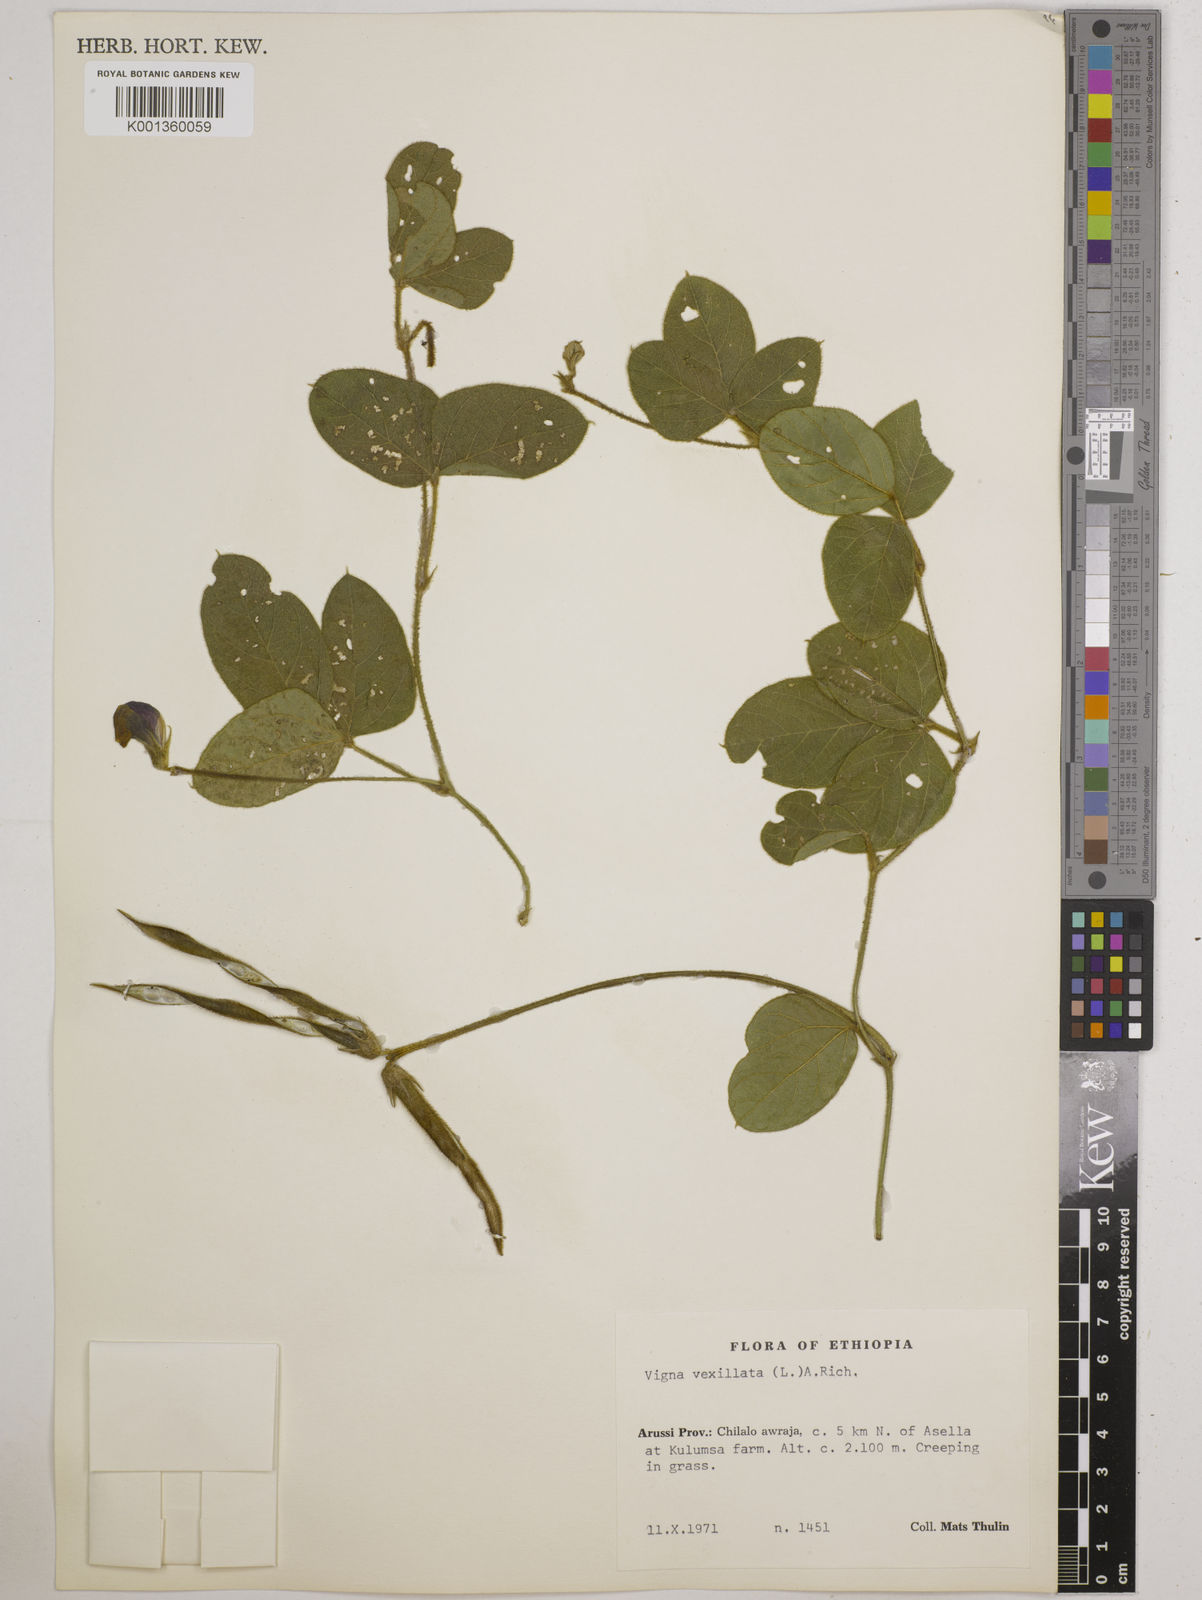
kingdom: Plantae
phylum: Tracheophyta
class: Magnoliopsida
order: Fabales
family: Fabaceae
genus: Vigna
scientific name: Vigna vexillata
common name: Zombi pea
